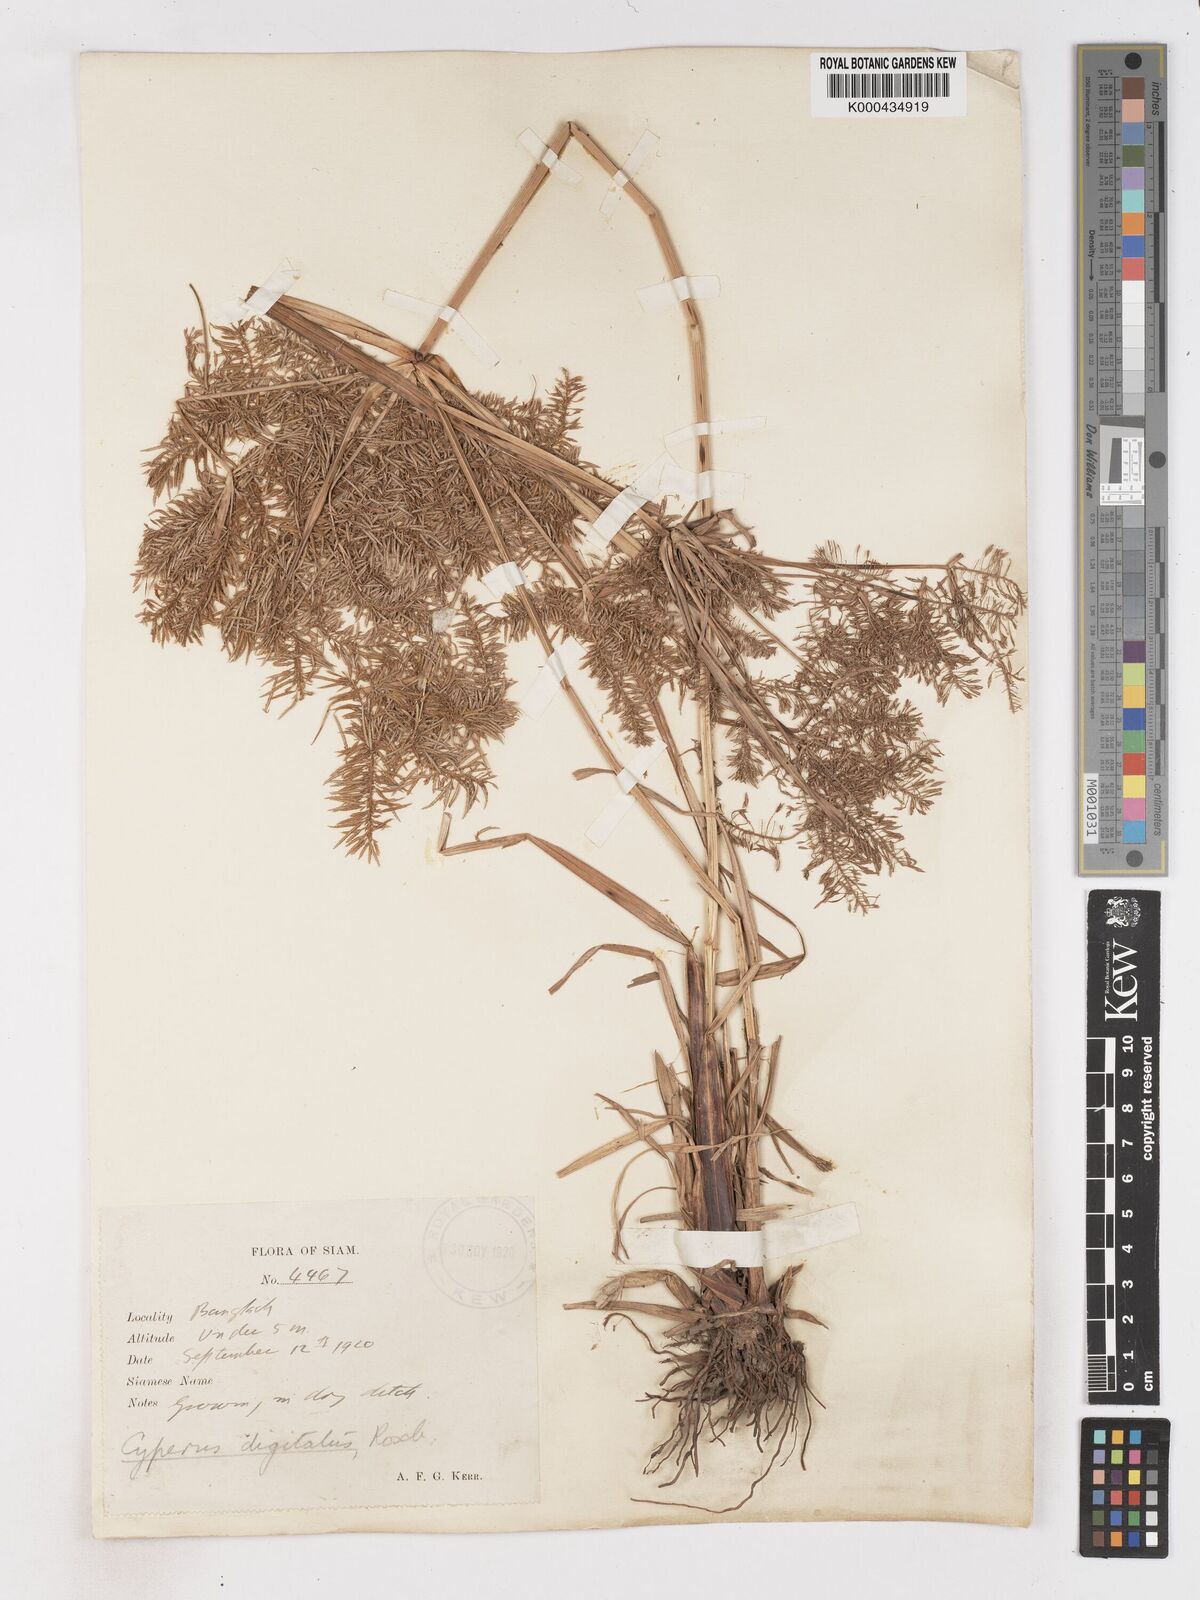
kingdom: Plantae
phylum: Tracheophyta
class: Liliopsida
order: Poales
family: Cyperaceae
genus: Cyperus
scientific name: Cyperus digitatus
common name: Finger flatsedge
